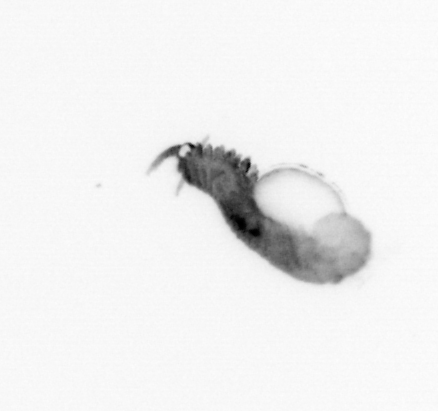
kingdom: Animalia
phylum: Annelida
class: Polychaeta
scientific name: Polychaeta
